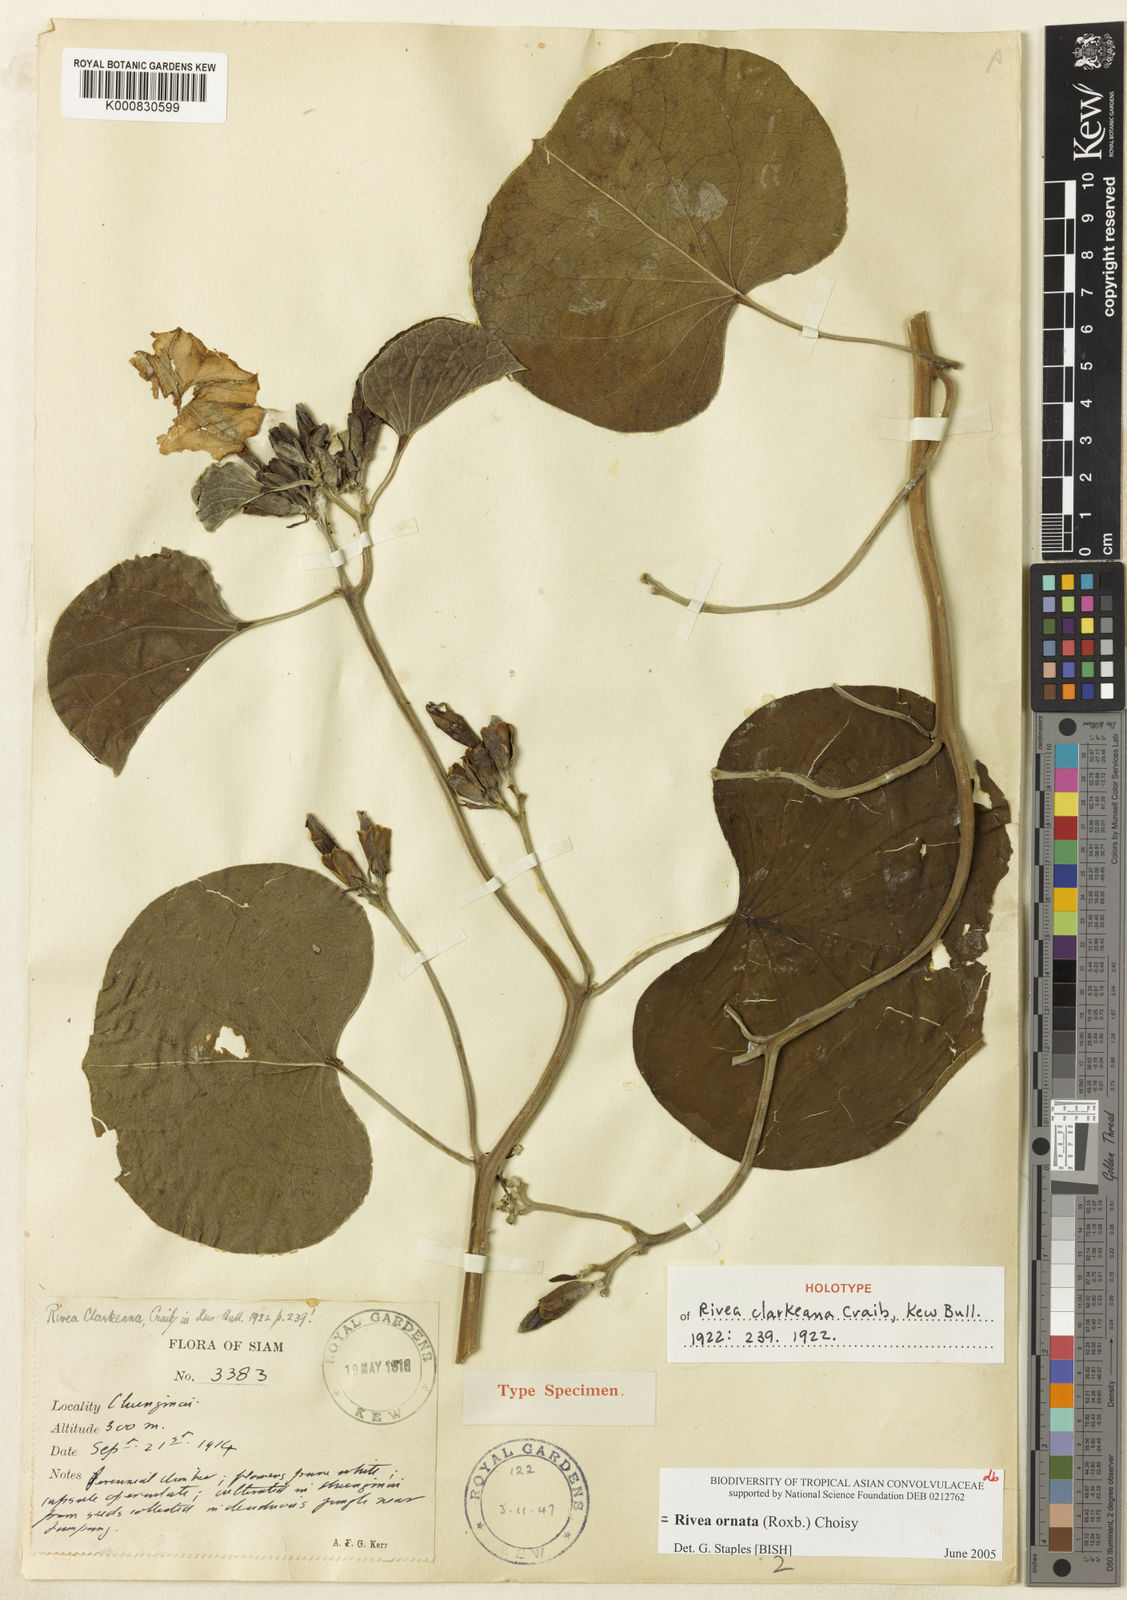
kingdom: Plantae
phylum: Tracheophyta
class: Magnoliopsida
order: Solanales
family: Convolvulaceae
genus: Rivea
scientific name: Rivea ornata
